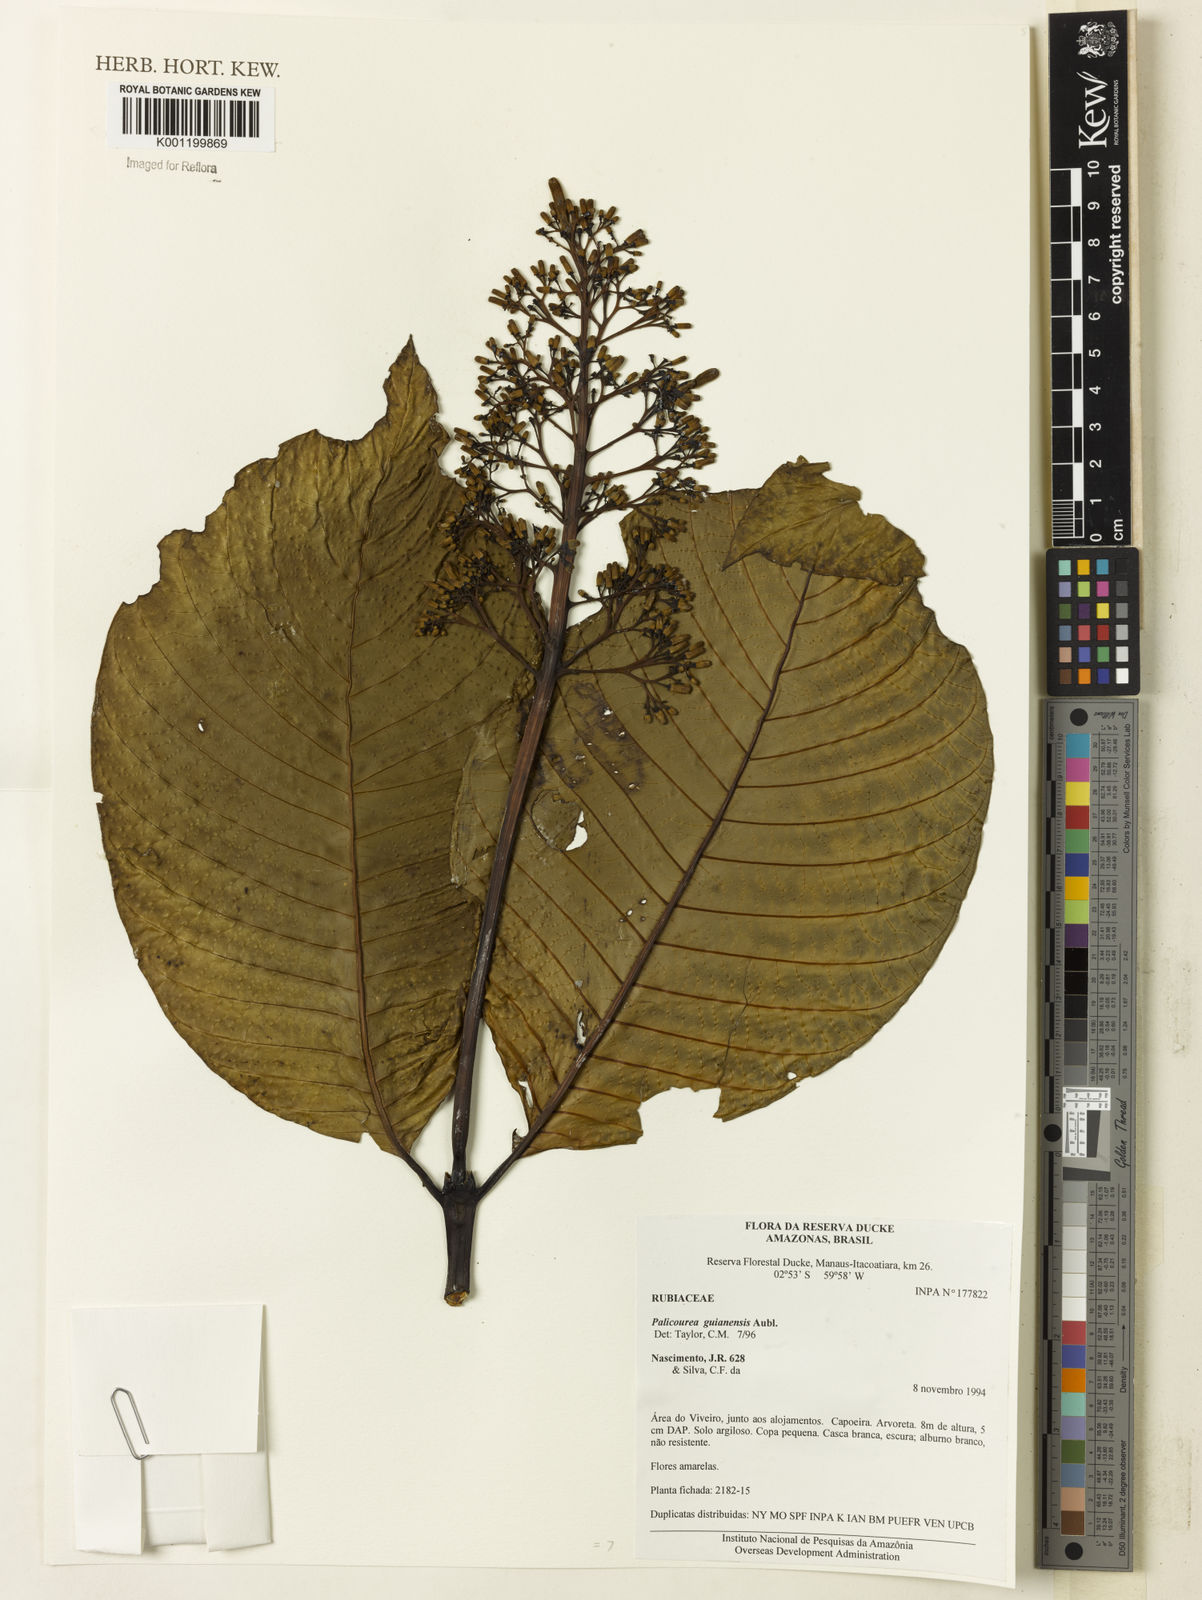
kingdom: Plantae
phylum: Tracheophyta
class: Magnoliopsida
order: Gentianales
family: Rubiaceae
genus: Palicourea
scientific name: Palicourea guianensis
